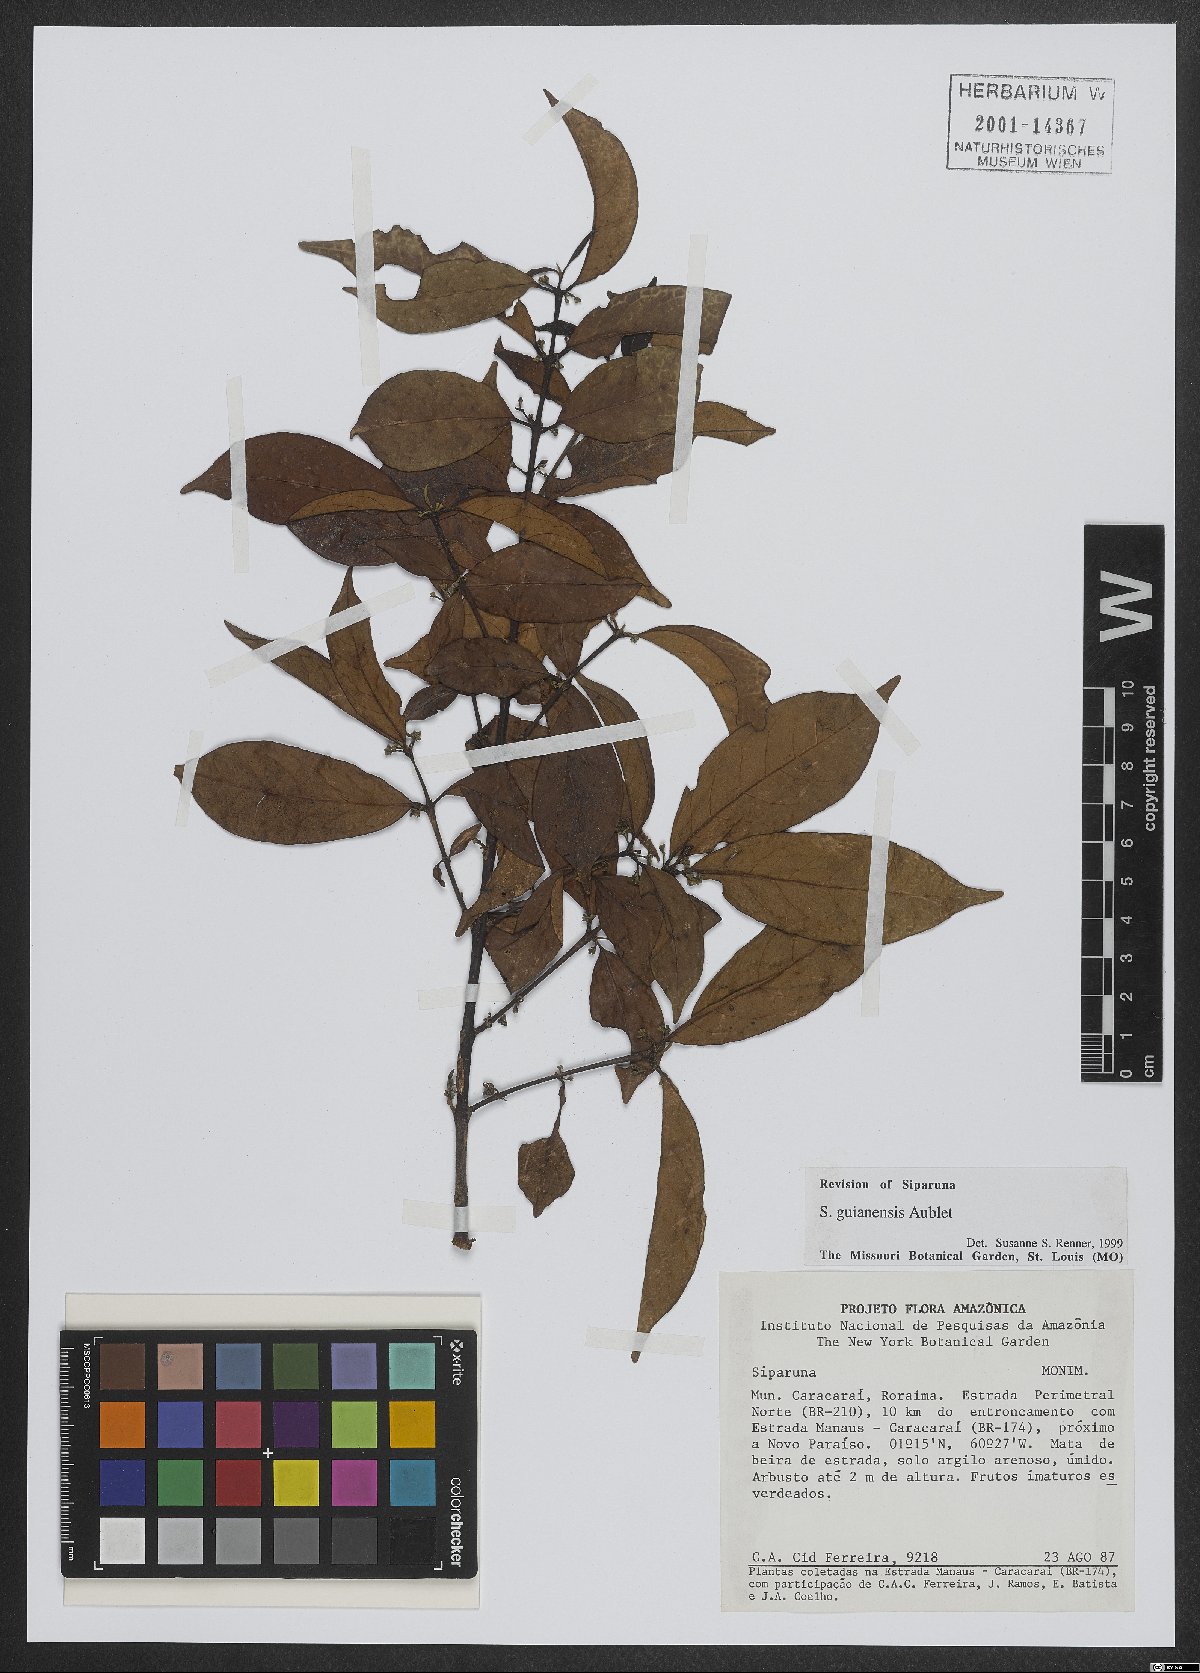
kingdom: Plantae
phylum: Tracheophyta
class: Magnoliopsida
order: Laurales
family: Siparunaceae
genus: Siparuna
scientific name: Siparuna guianensis
